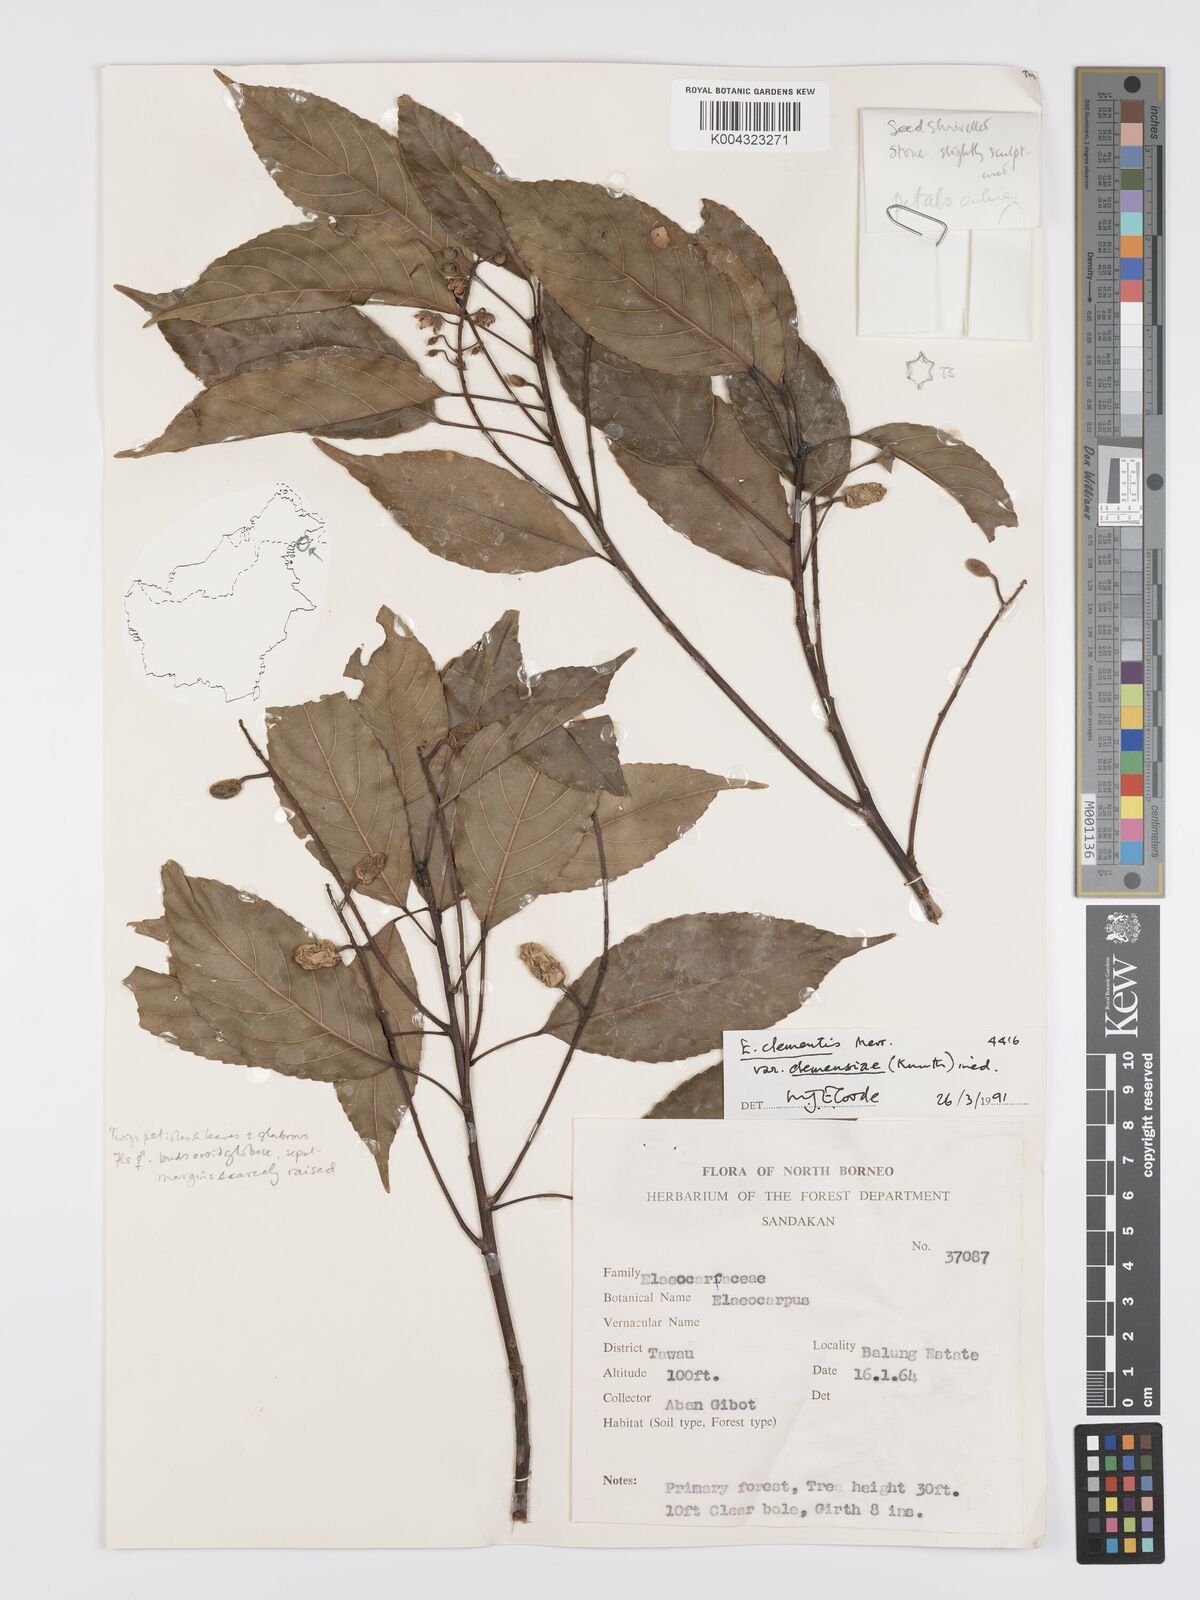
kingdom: Plantae
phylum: Tracheophyta
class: Magnoliopsida
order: Oxalidales
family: Elaeocarpaceae
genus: Elaeocarpus
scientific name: Elaeocarpus clementis
